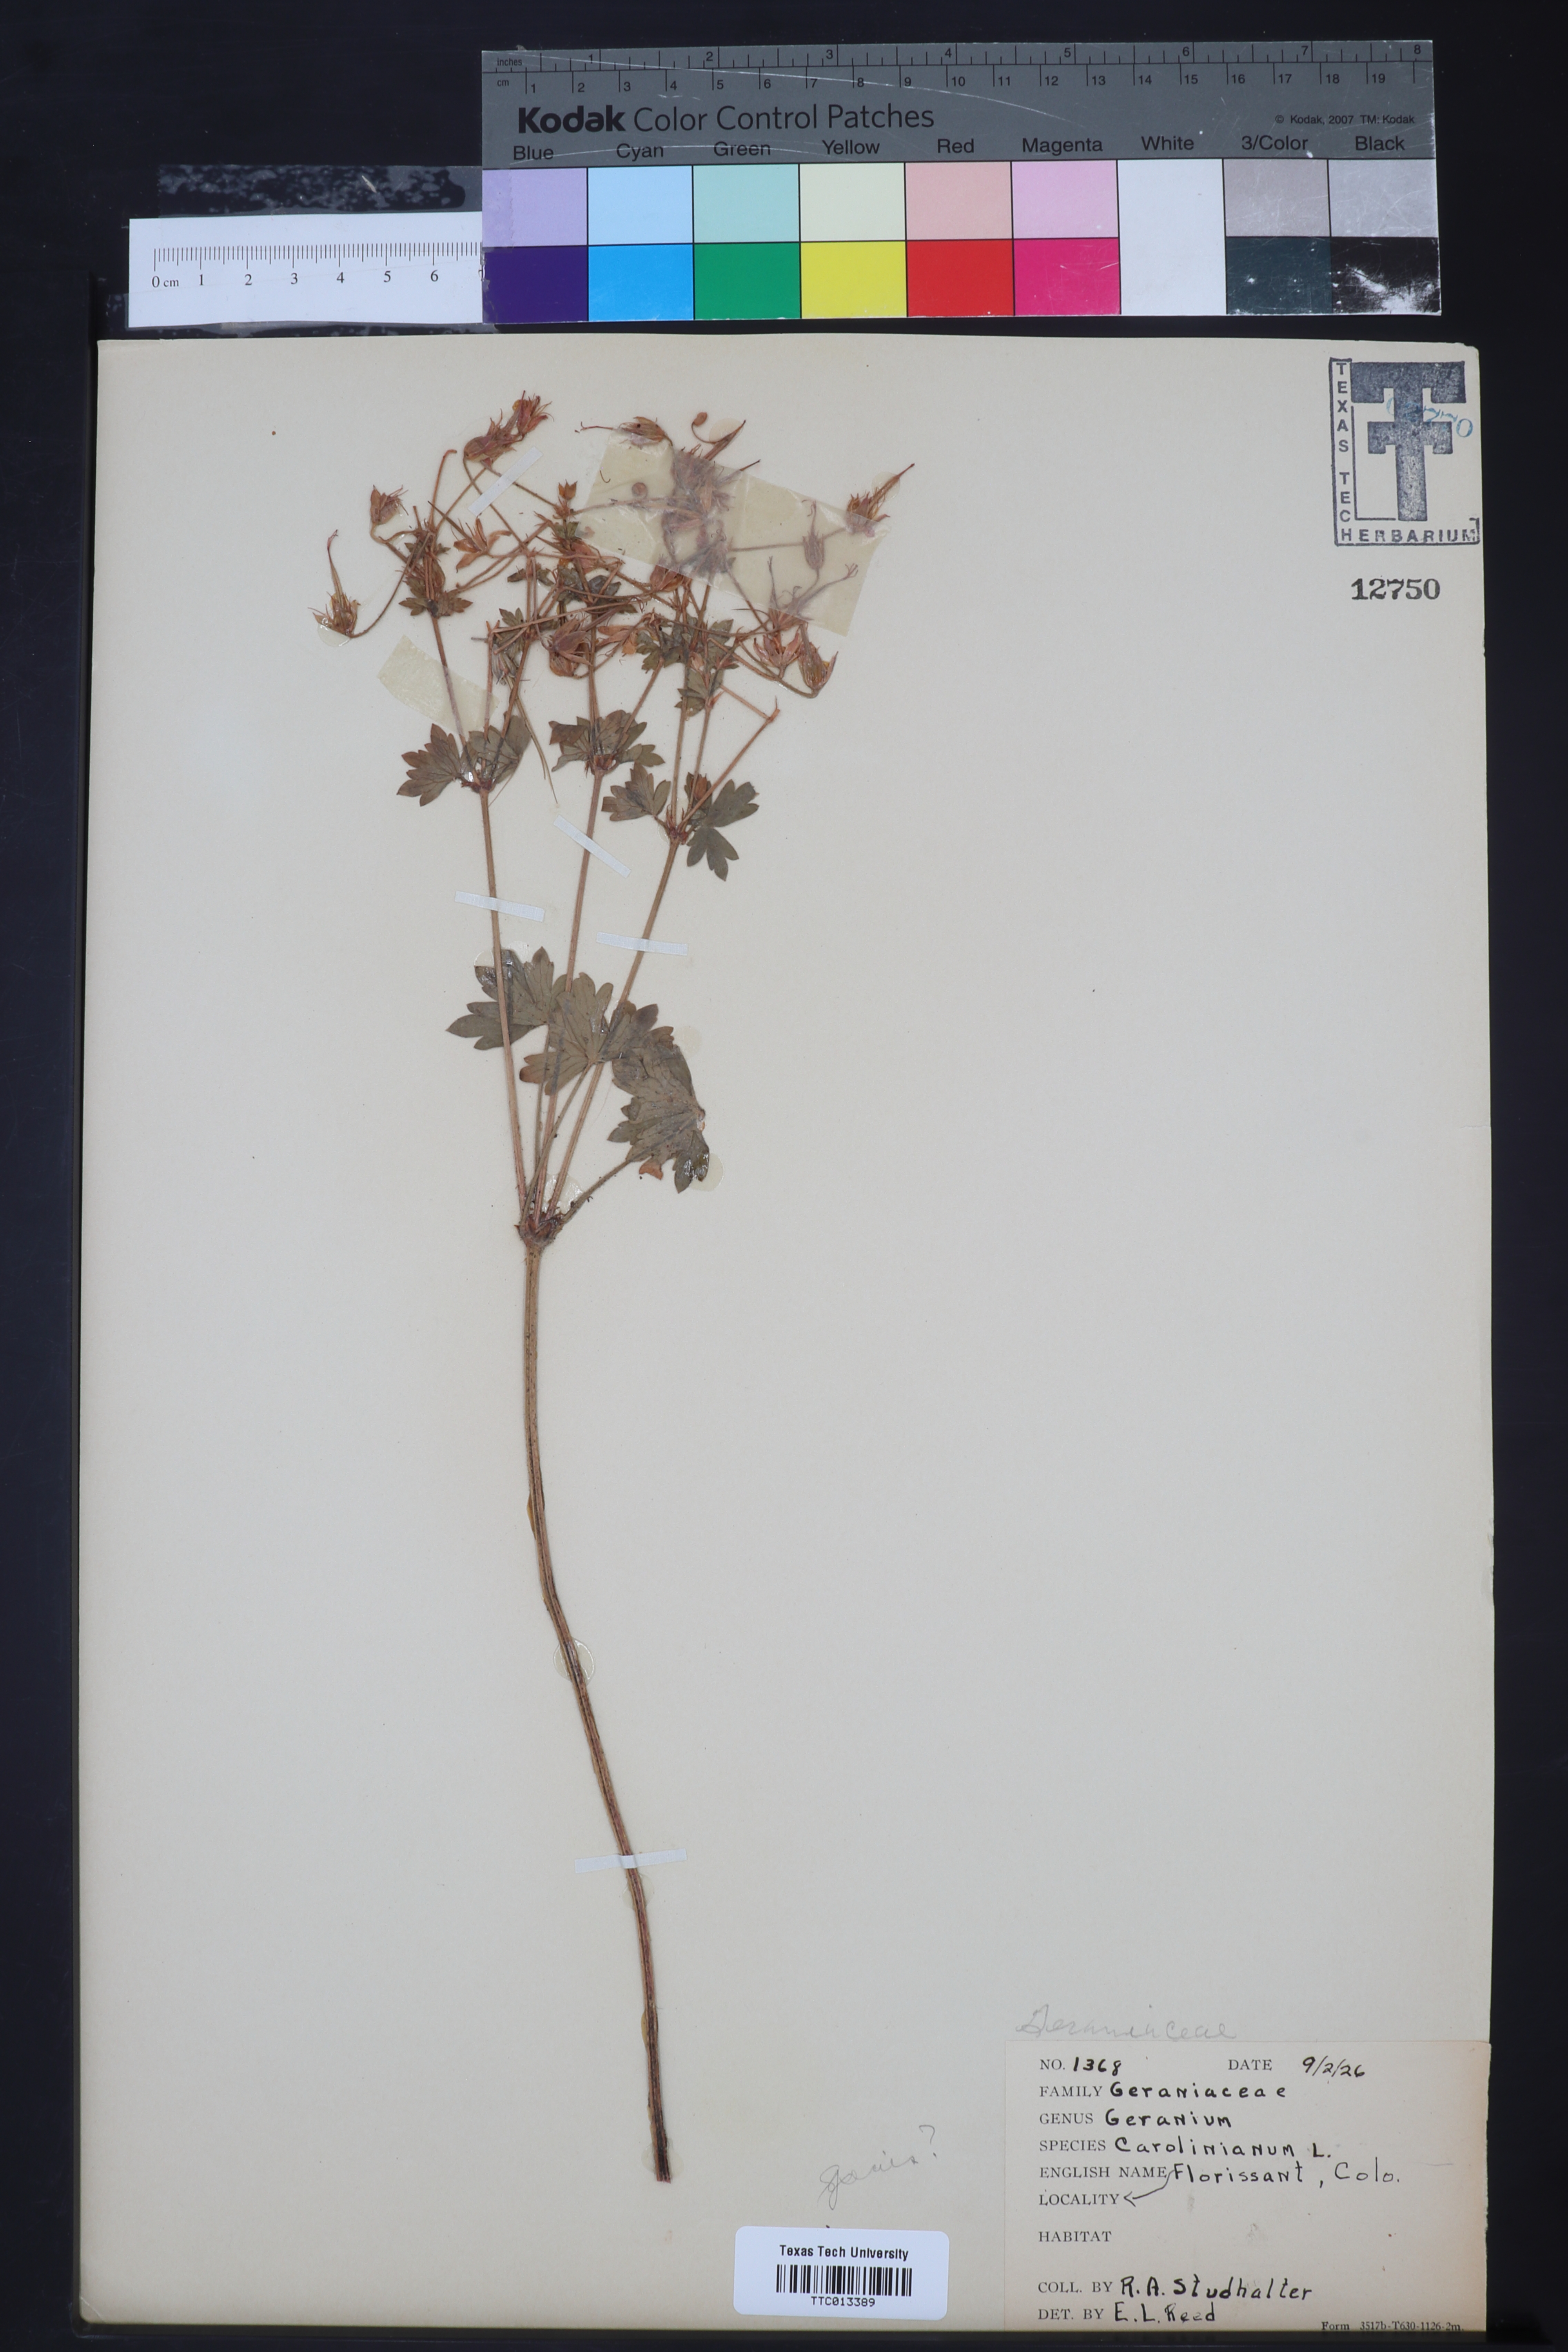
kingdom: Plantae
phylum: Tracheophyta
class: Magnoliopsida
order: Geraniales
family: Geraniaceae
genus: Geranium
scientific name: Geranium carolinianum
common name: Carolina crane's-bill
